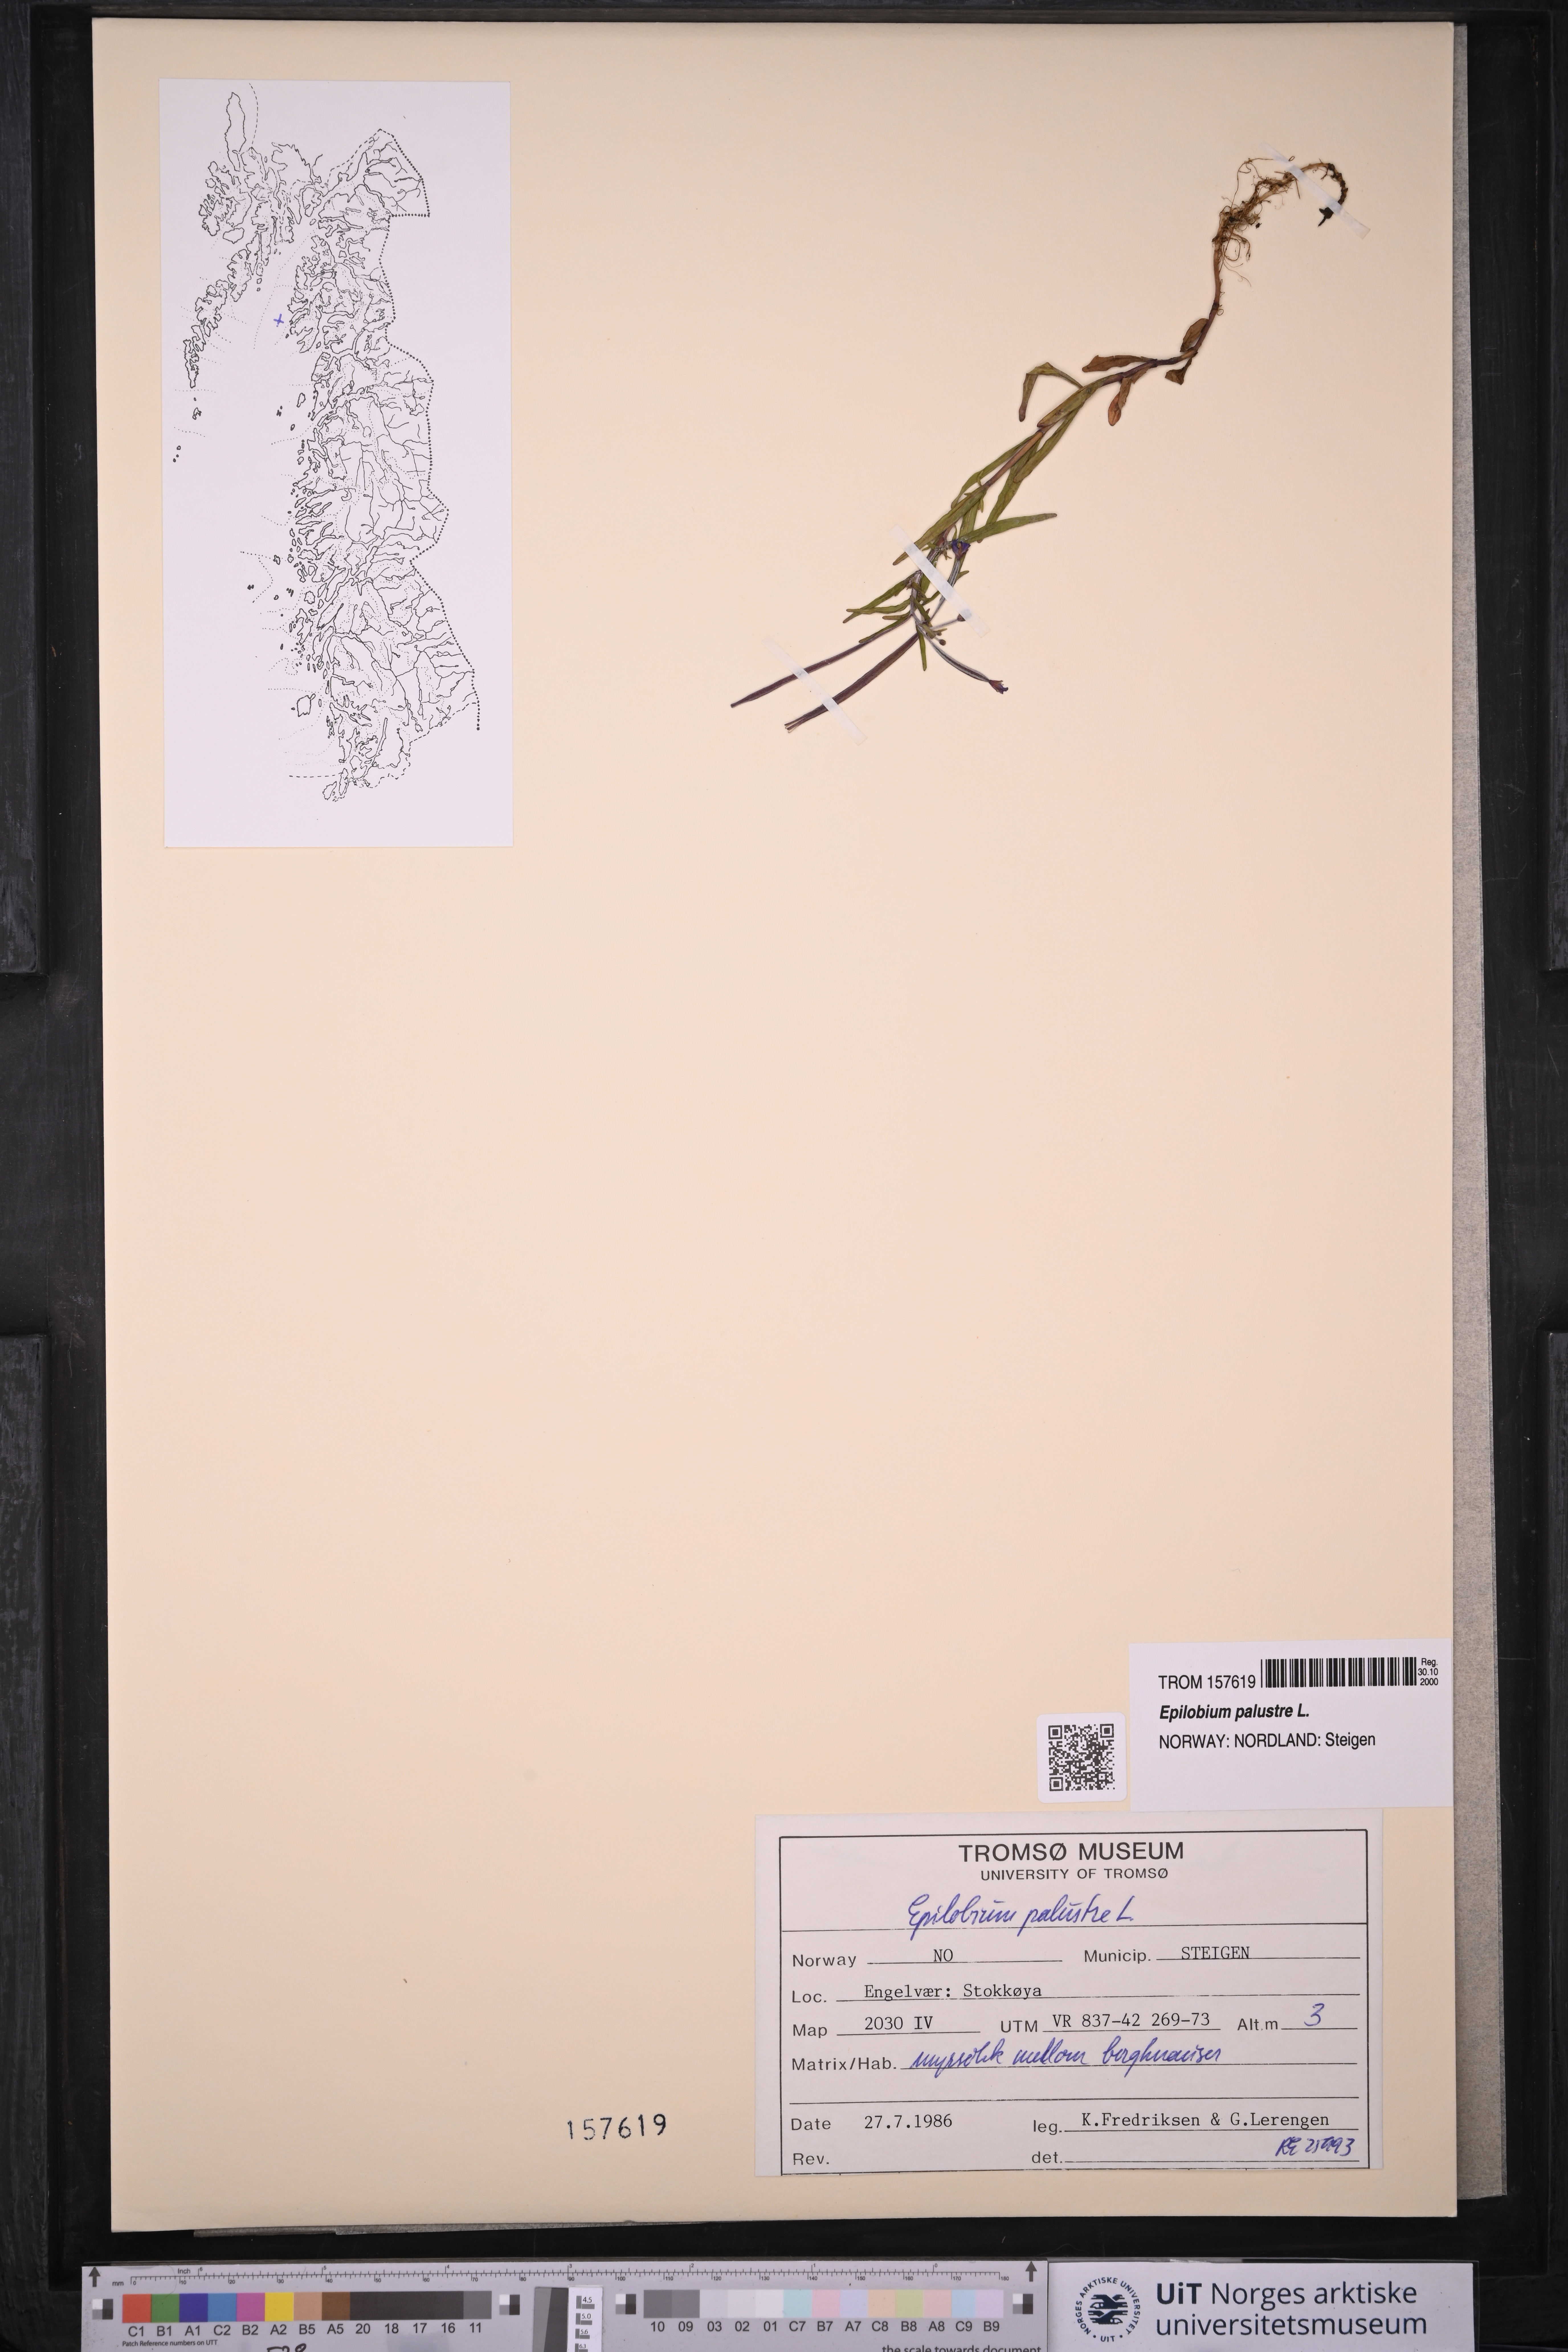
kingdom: Plantae
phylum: Tracheophyta
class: Magnoliopsida
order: Myrtales
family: Onagraceae
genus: Epilobium
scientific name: Epilobium palustre
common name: Marsh willowherb
